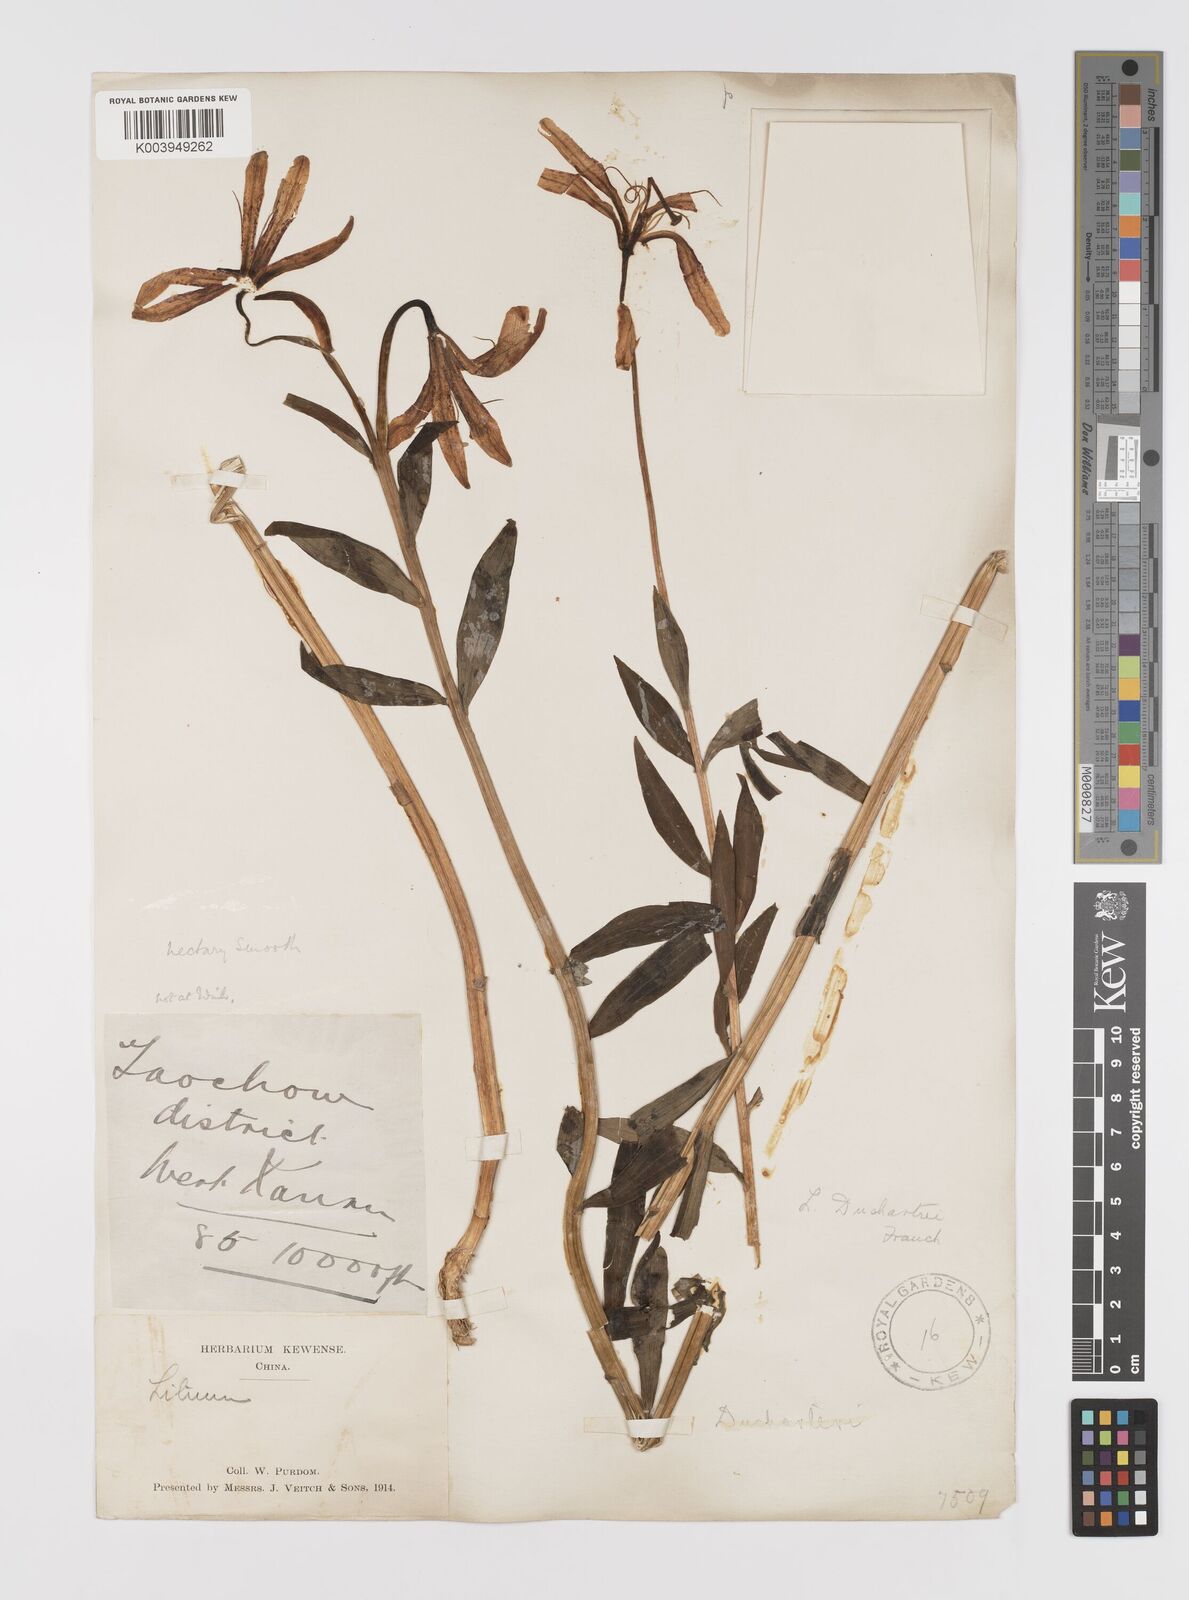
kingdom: Plantae
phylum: Tracheophyta
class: Liliopsida
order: Liliales
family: Liliaceae
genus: Lilium
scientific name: Lilium duchartrei
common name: Duchartre lily
